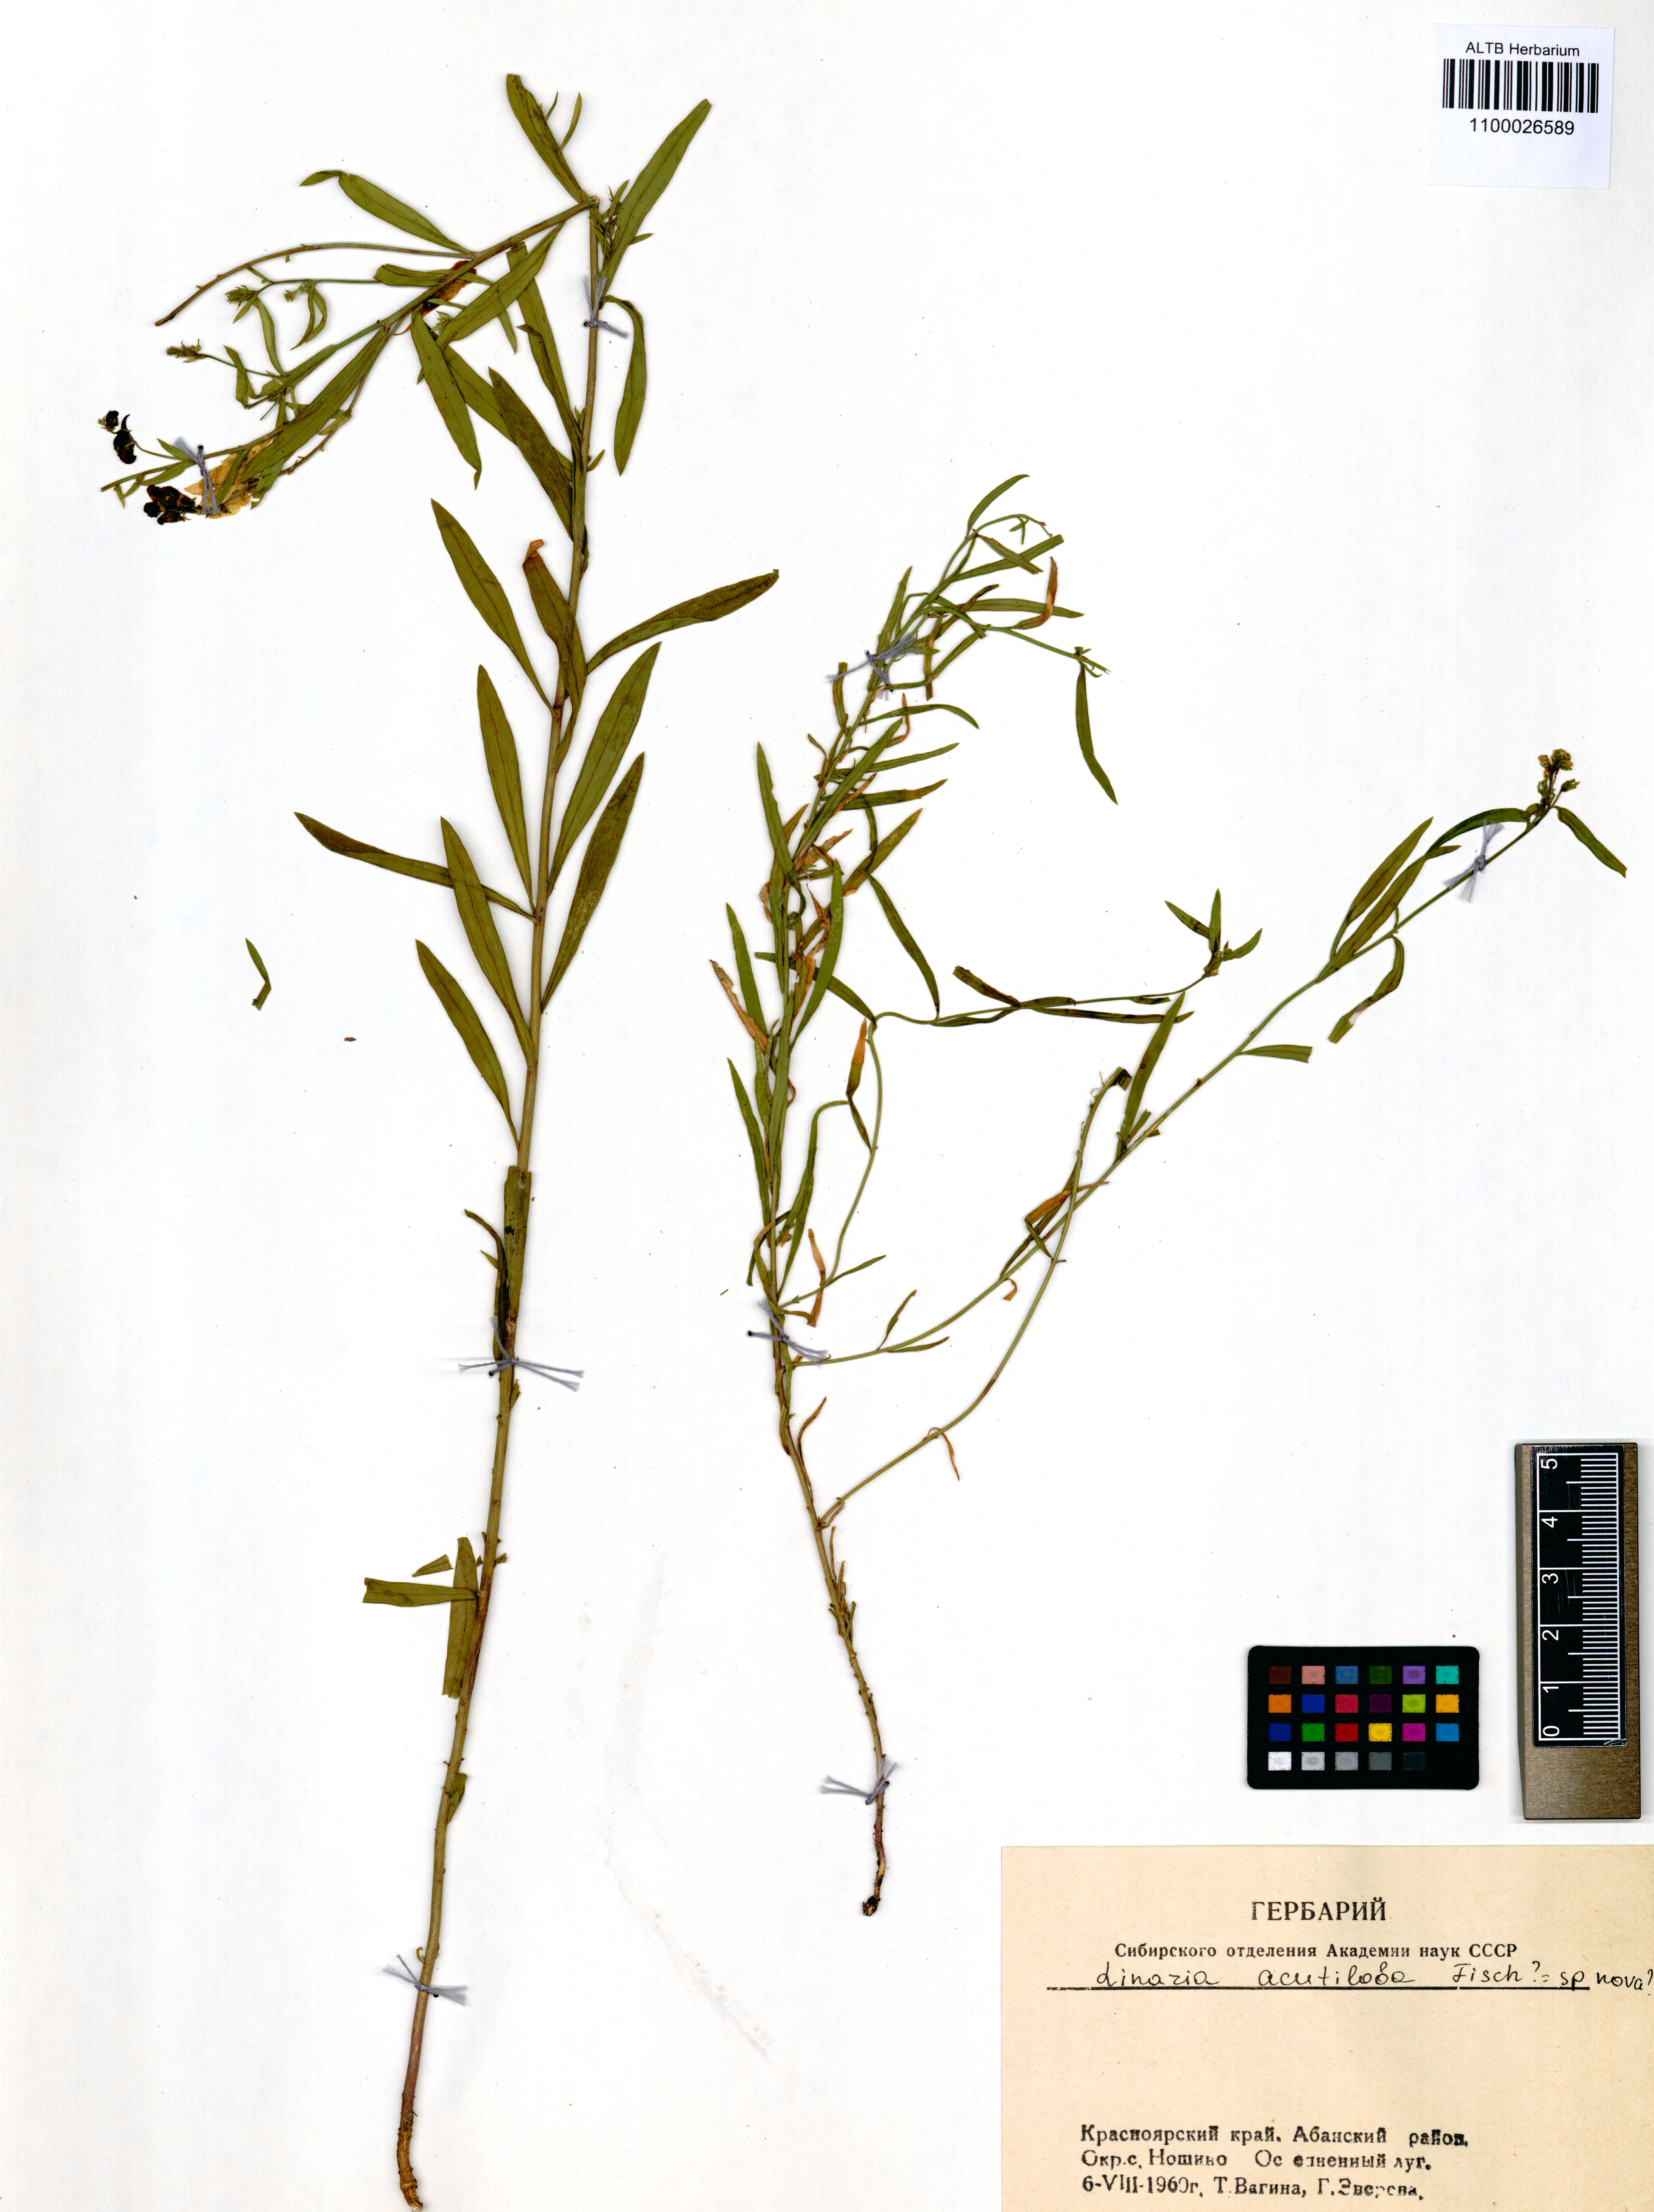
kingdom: Plantae
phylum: Tracheophyta
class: Magnoliopsida
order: Lamiales
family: Plantaginaceae
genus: Linaria
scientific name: Linaria acutiloba
